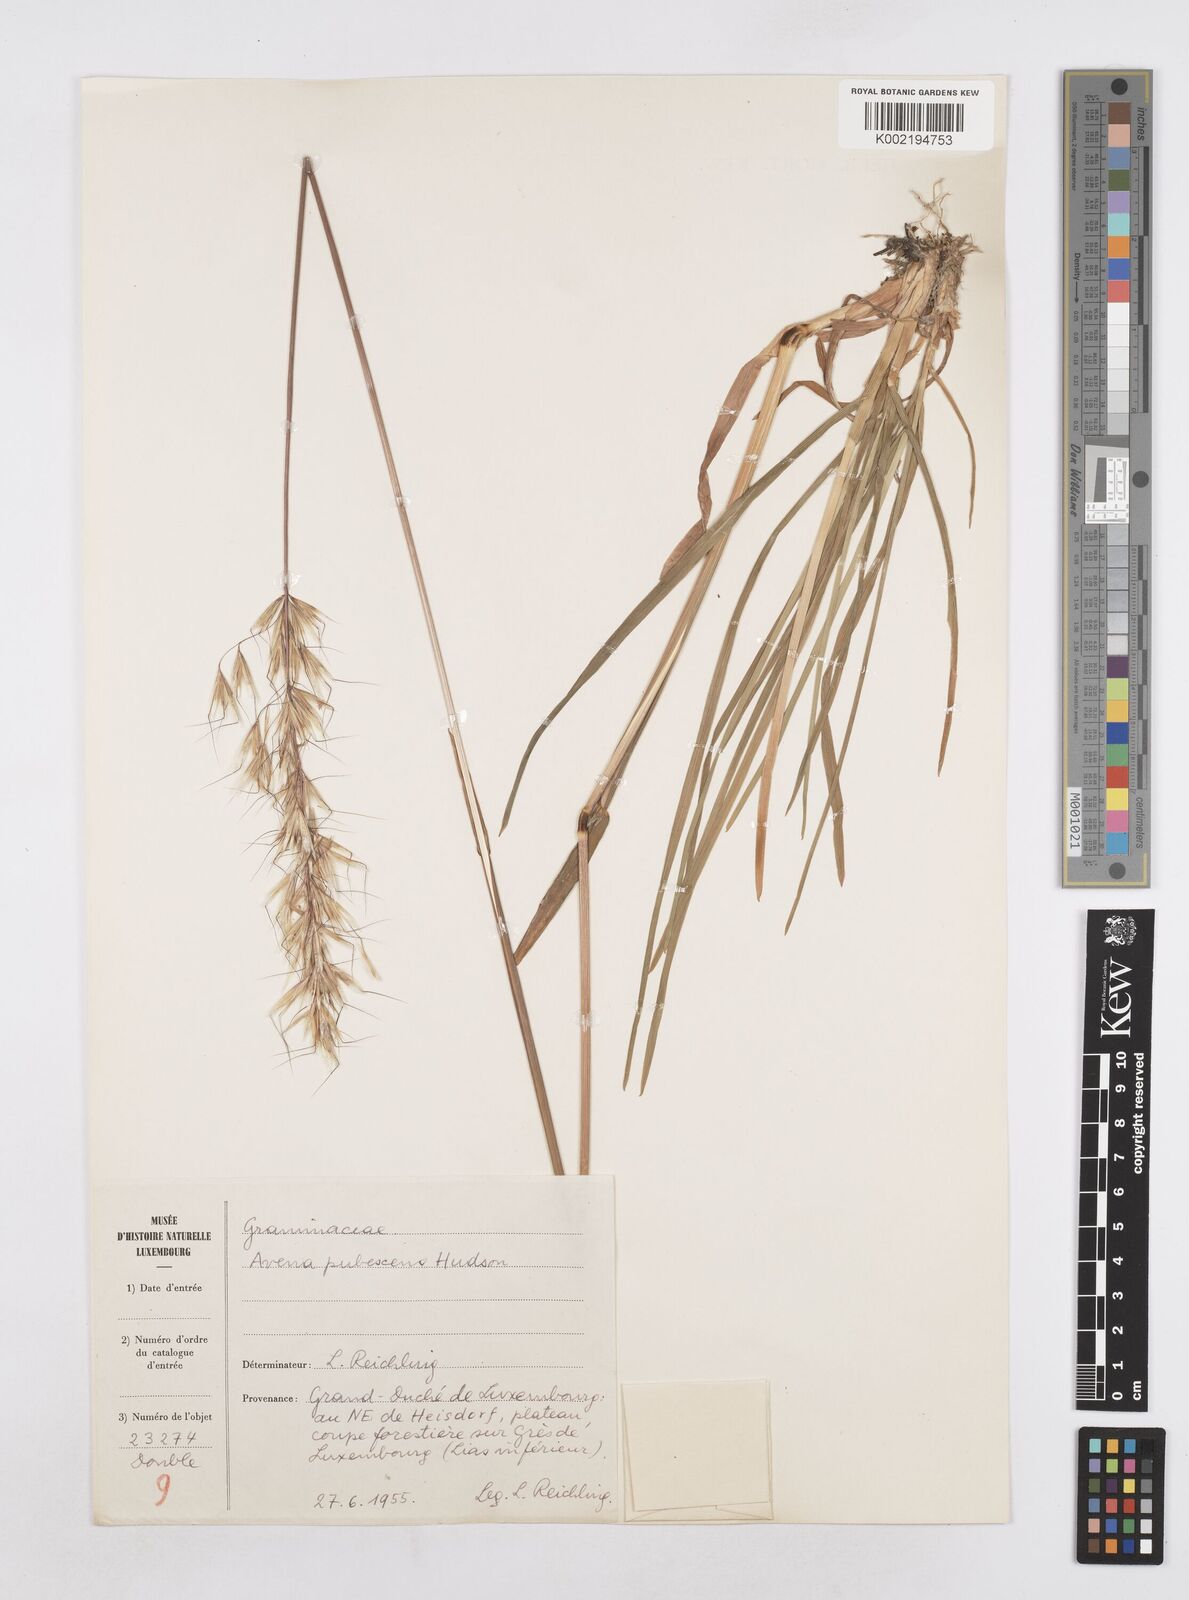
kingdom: Plantae
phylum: Tracheophyta
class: Liliopsida
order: Poales
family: Poaceae
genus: Avenula
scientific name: Avenula pubescens
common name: Downy alpine oatgrass
